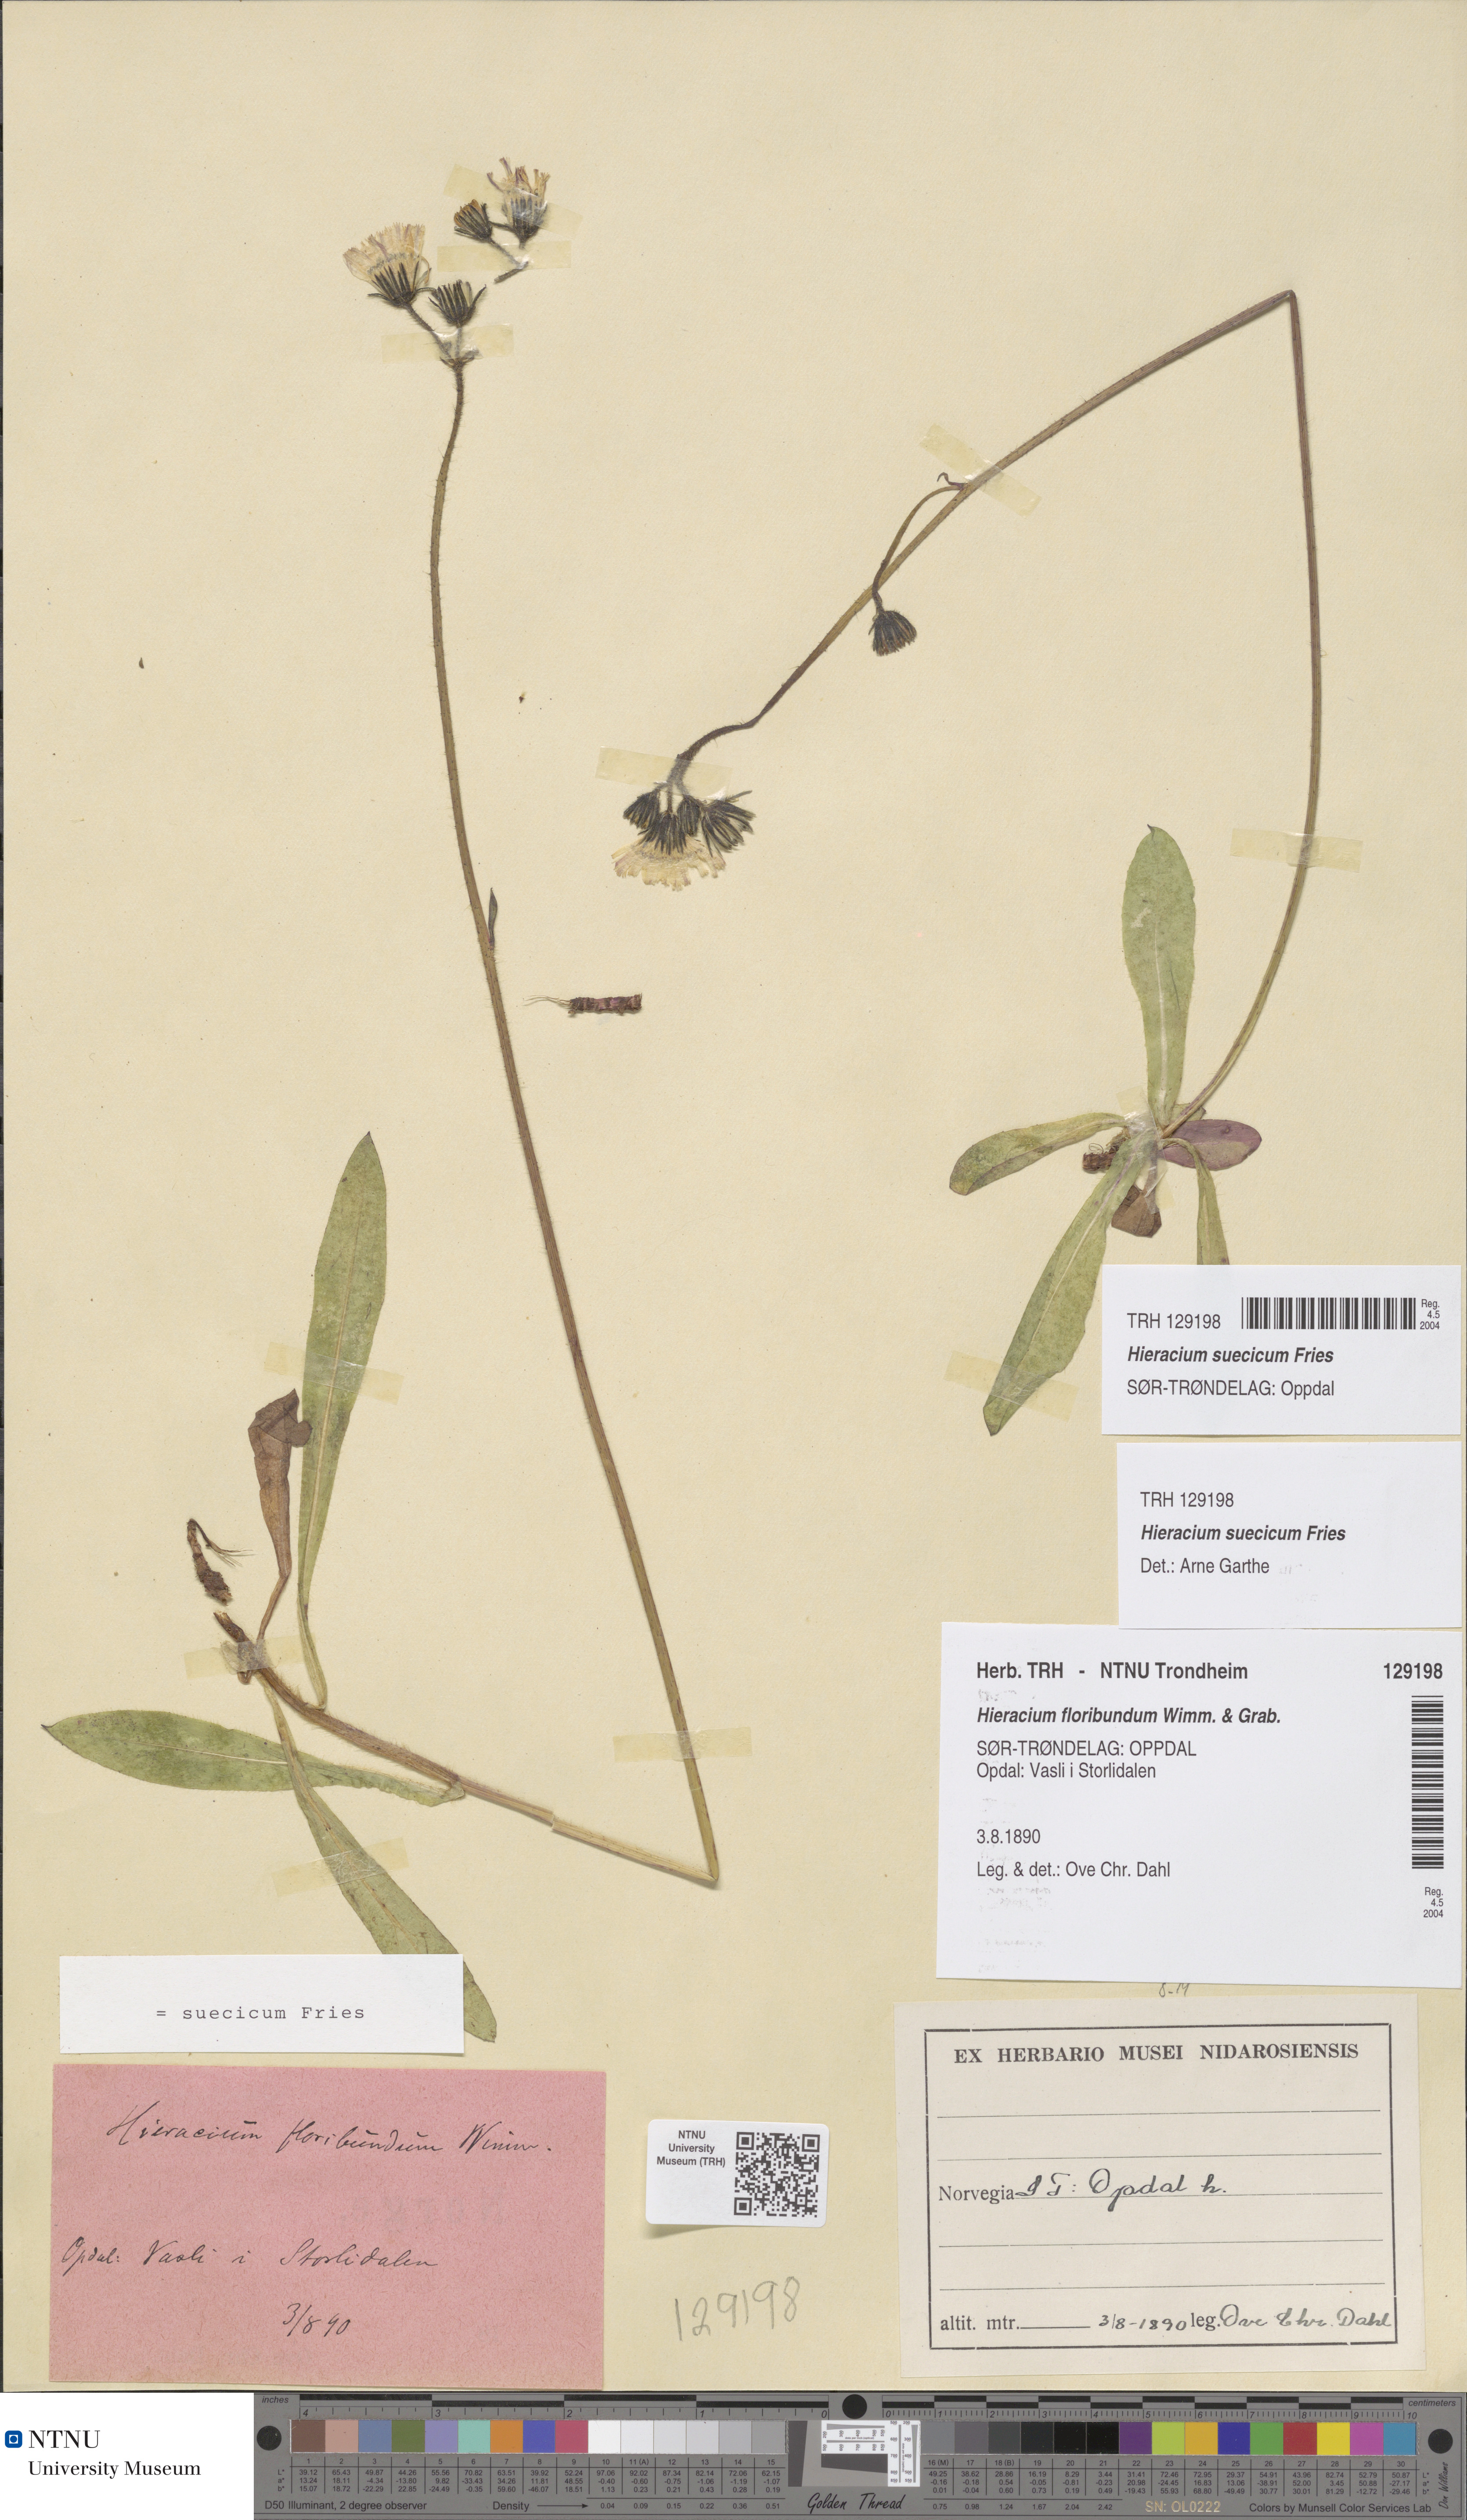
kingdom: Plantae
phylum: Tracheophyta
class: Magnoliopsida
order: Asterales
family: Asteraceae
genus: Pilosella
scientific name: Pilosella dubia
